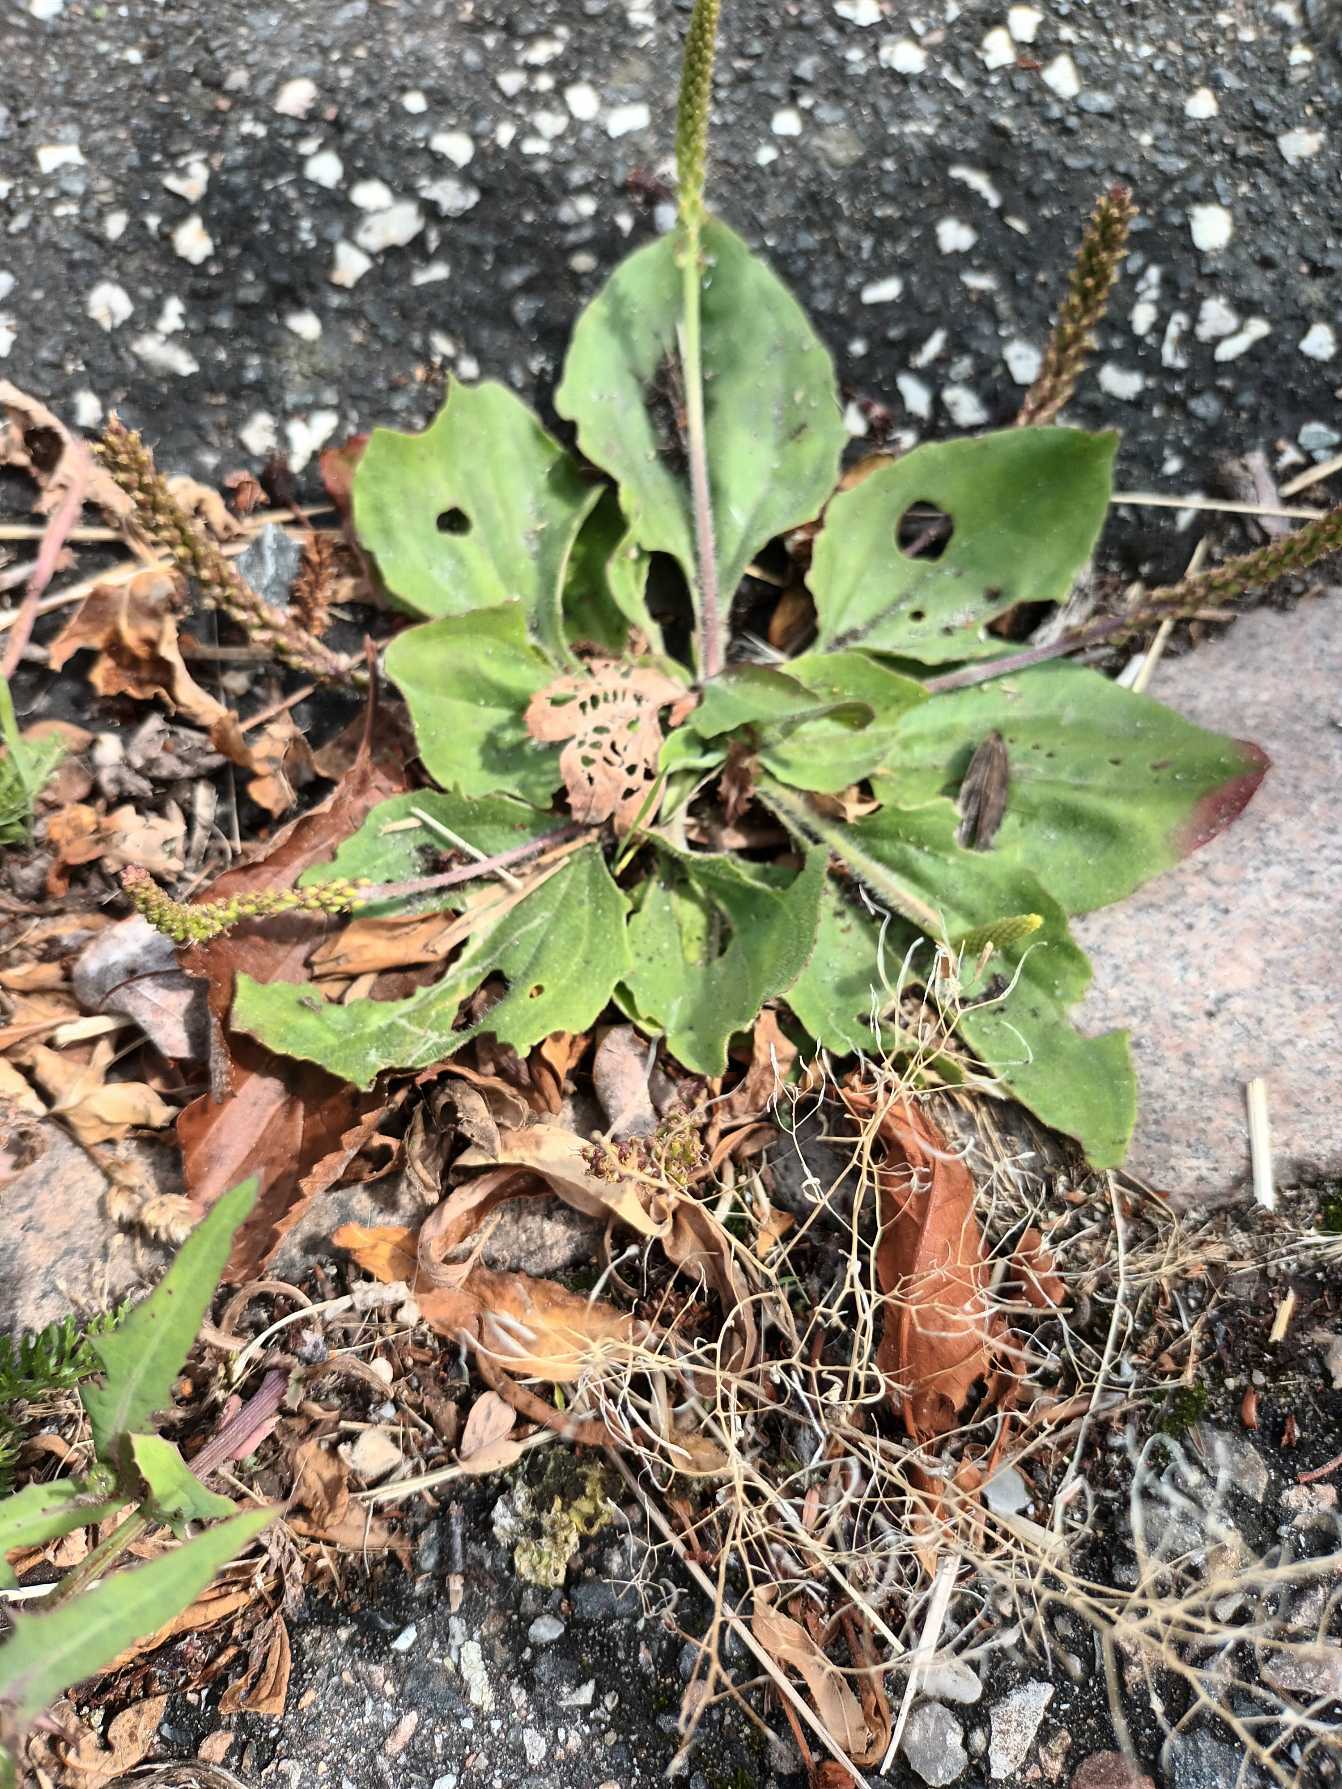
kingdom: Plantae
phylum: Tracheophyta
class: Magnoliopsida
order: Lamiales
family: Plantaginaceae
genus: Plantago
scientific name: Plantago major
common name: Glat vejbred
